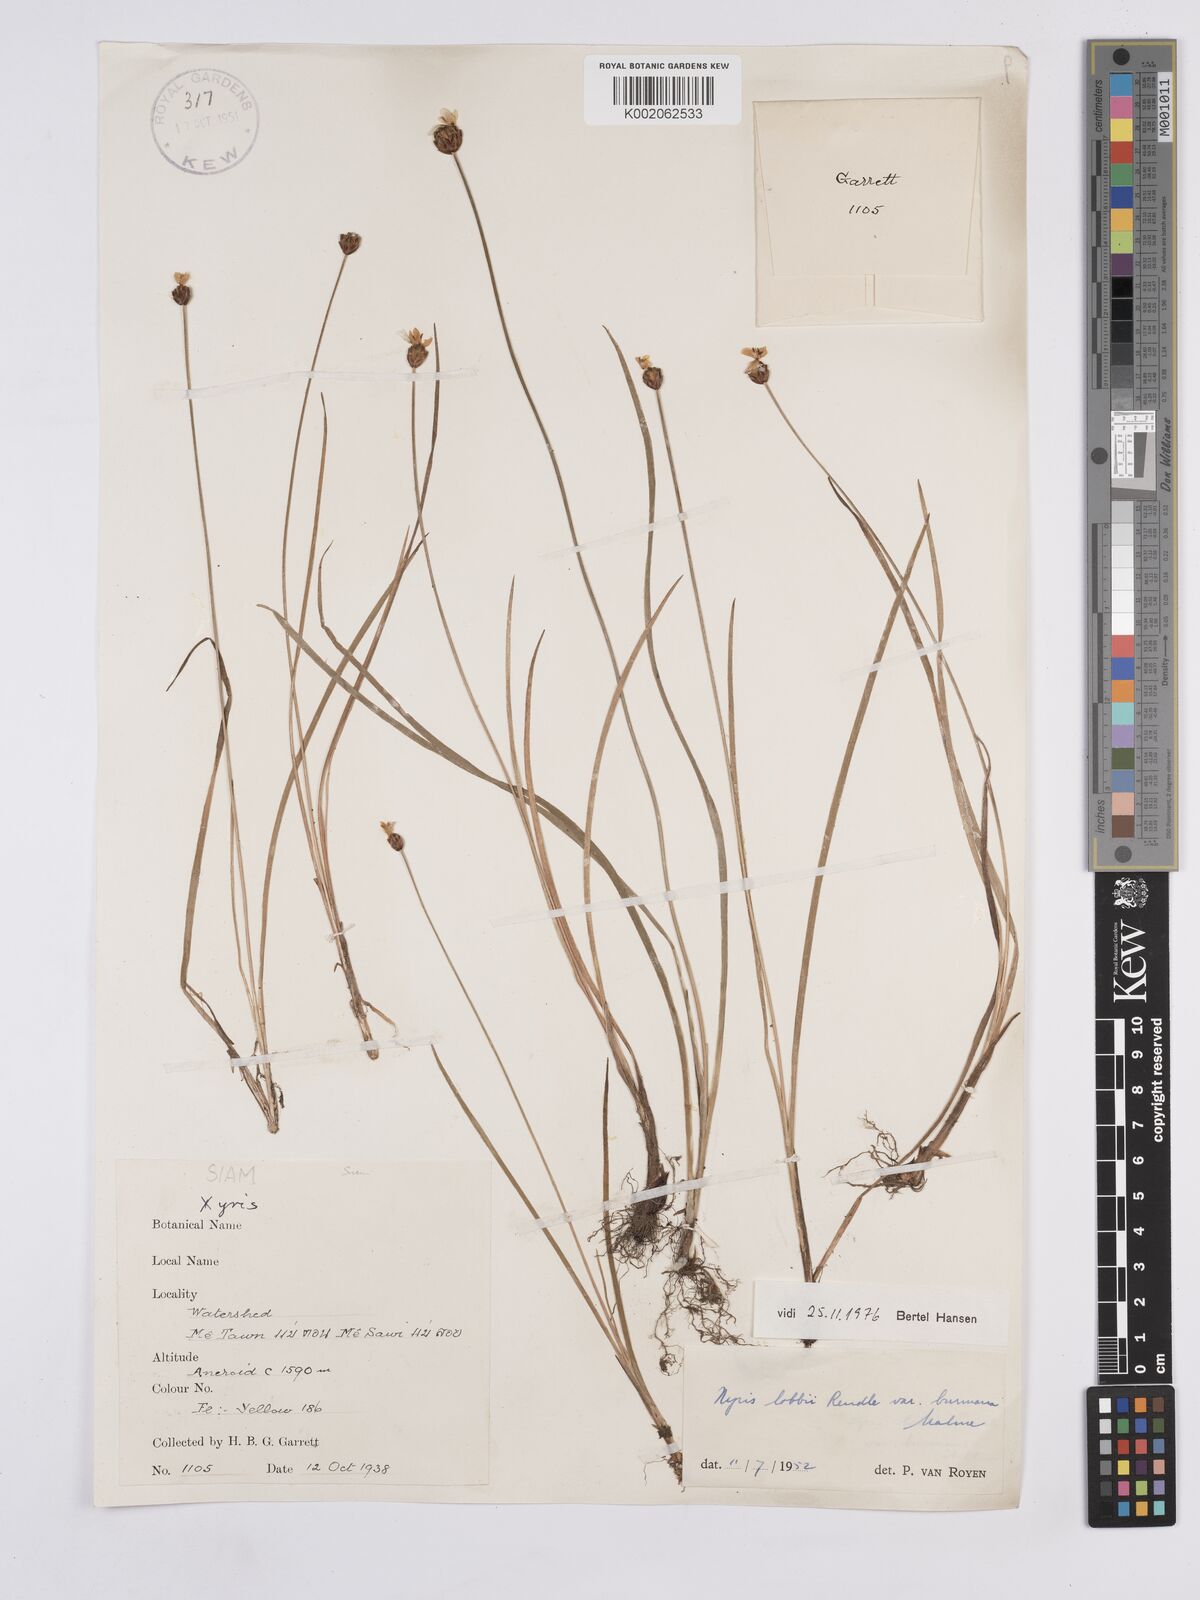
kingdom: Plantae
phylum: Tracheophyta
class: Liliopsida
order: Poales
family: Xyridaceae
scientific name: Xyridaceae
